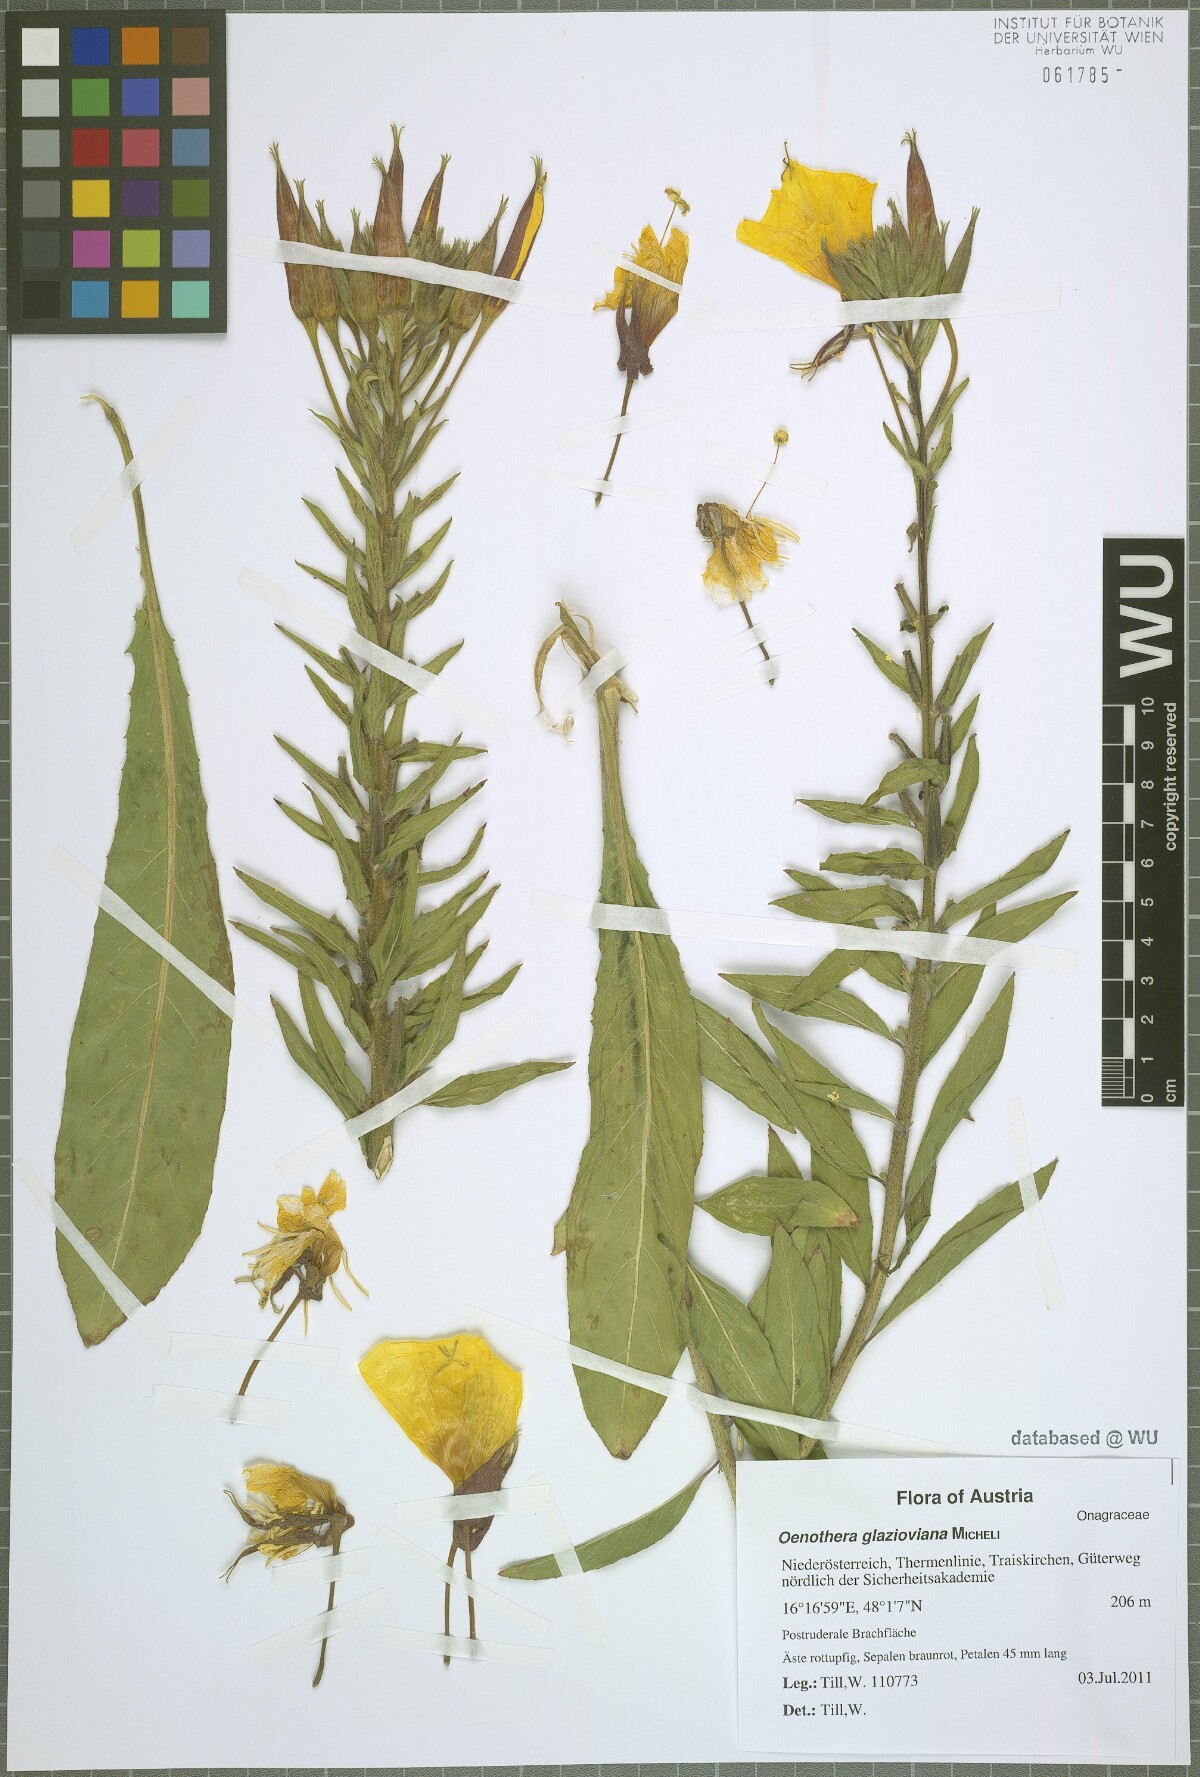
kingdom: Plantae
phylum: Tracheophyta
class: Magnoliopsida
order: Myrtales
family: Onagraceae
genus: Oenothera
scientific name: Oenothera glazioviana
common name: Large-flowered evening-primrose
